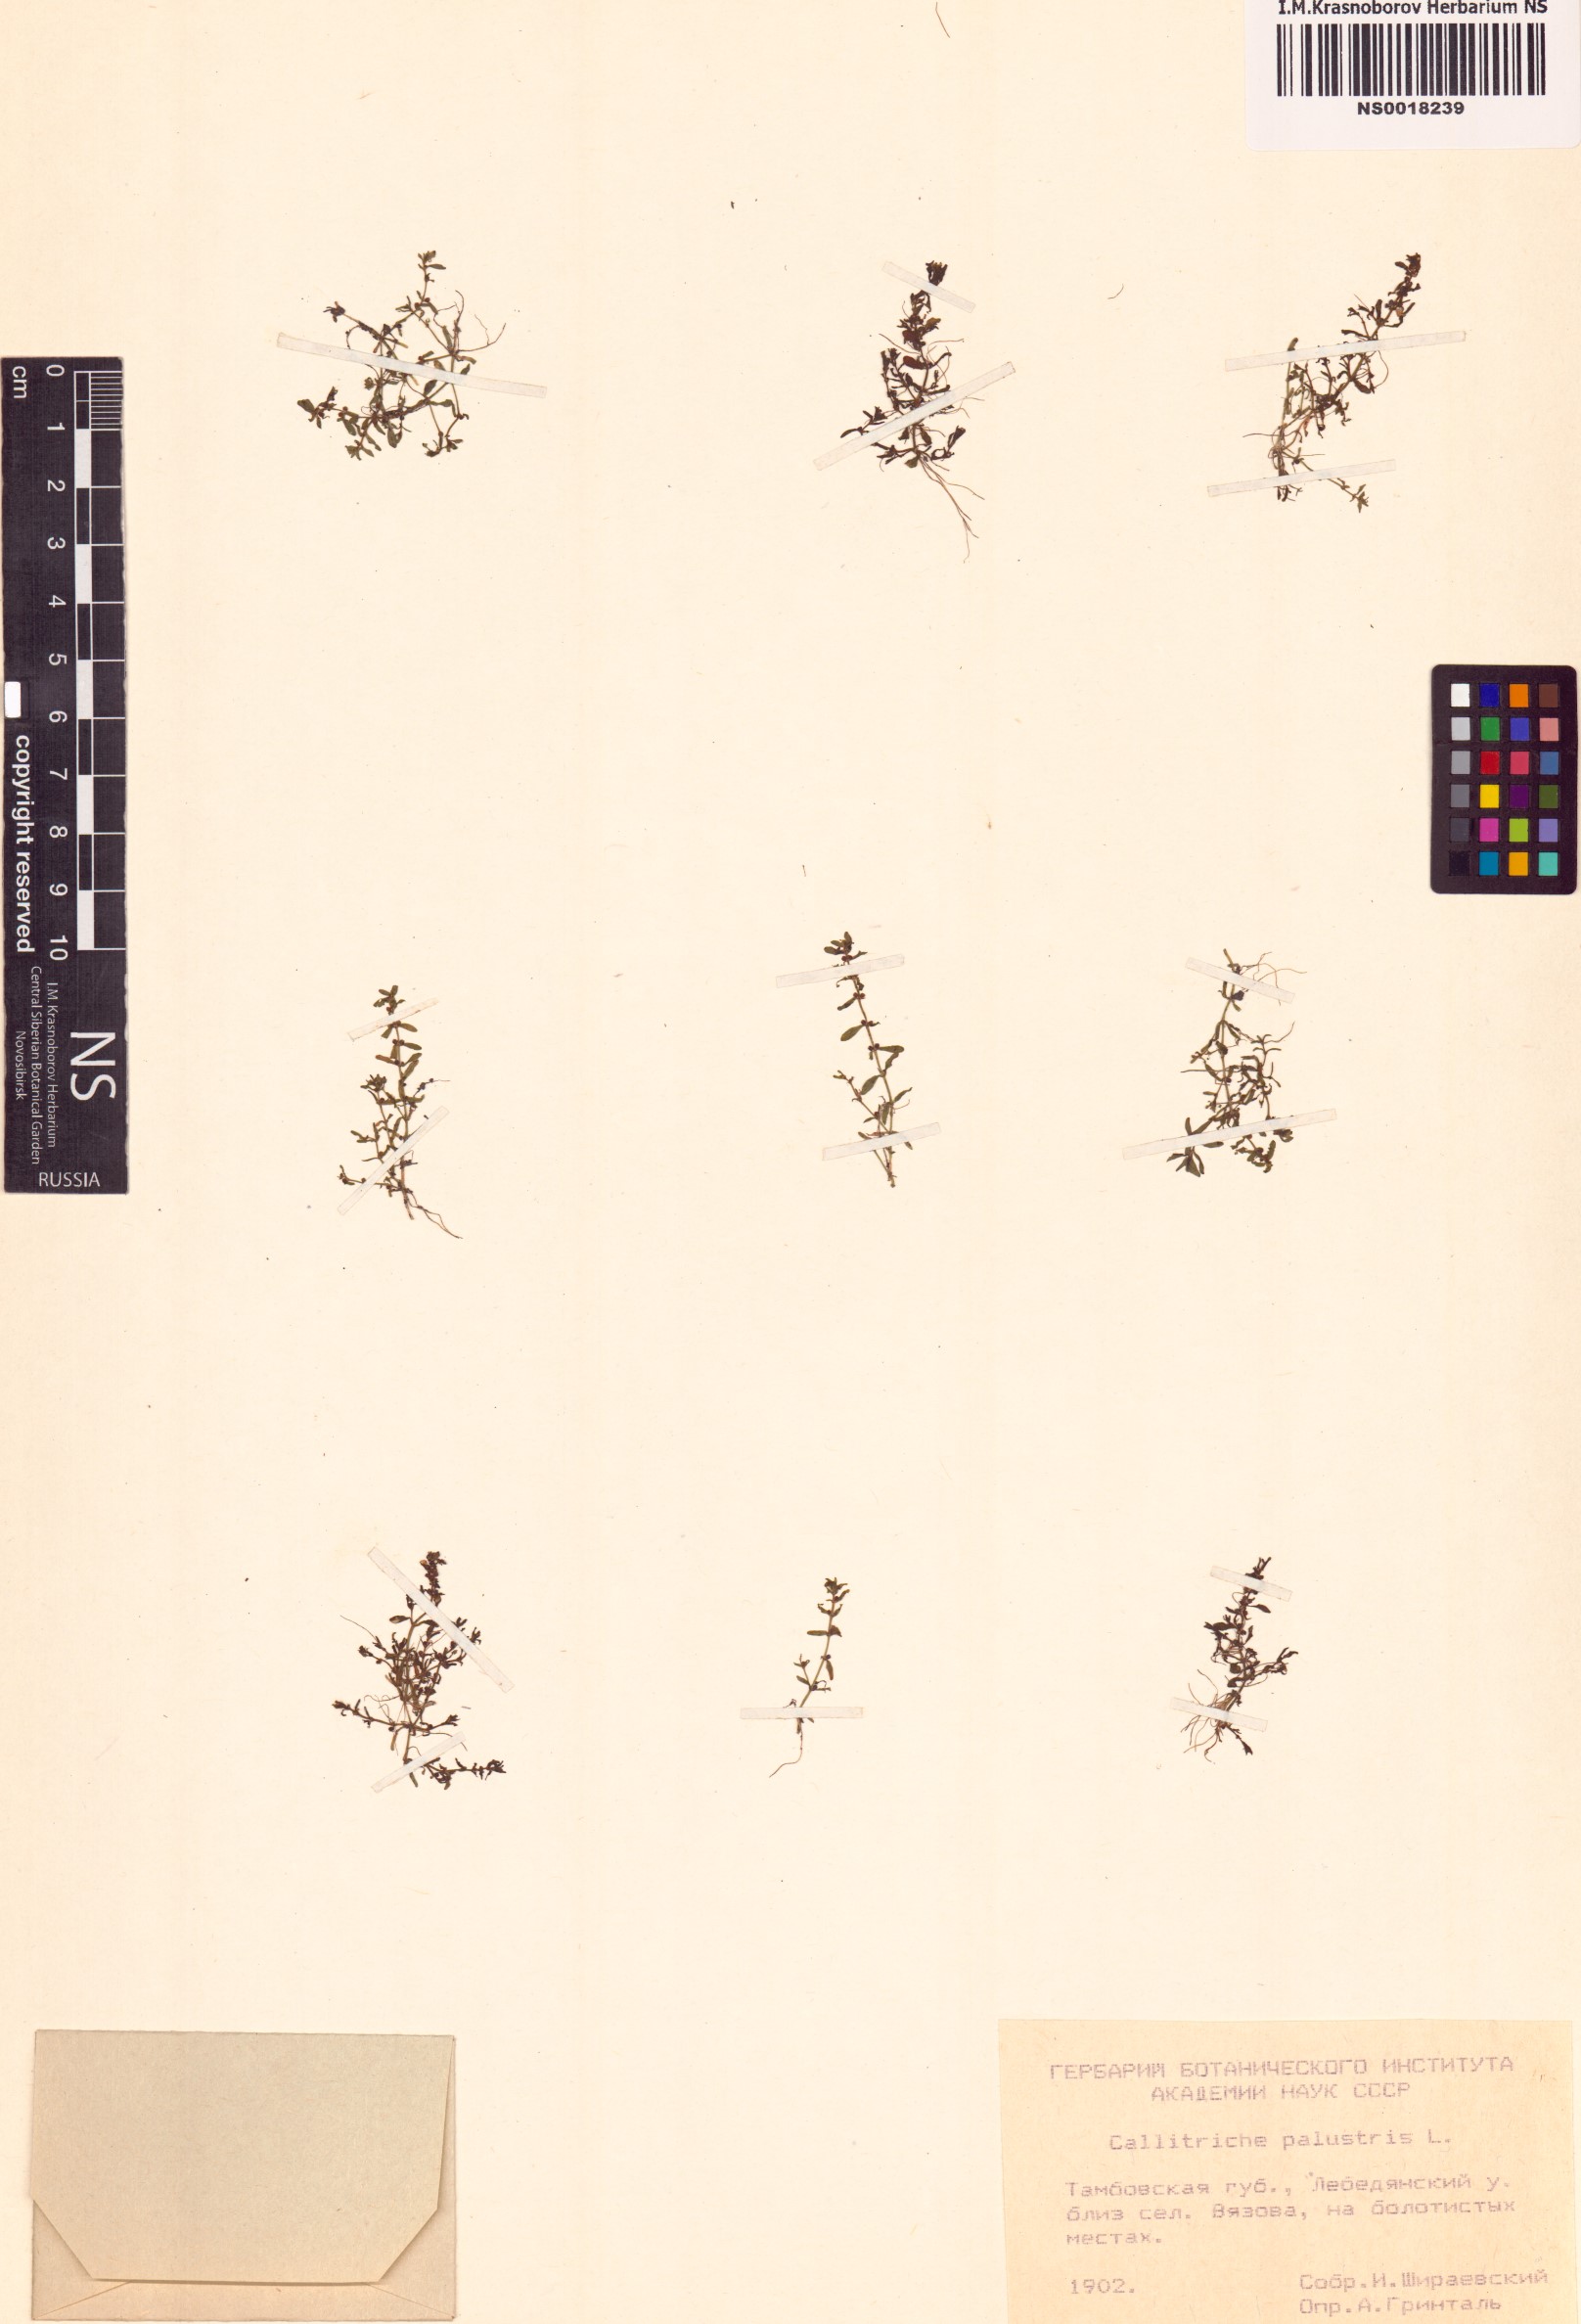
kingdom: Plantae
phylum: Tracheophyta
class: Magnoliopsida
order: Lamiales
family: Plantaginaceae
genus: Callitriche
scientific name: Callitriche palustris
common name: Spring water-starwort
